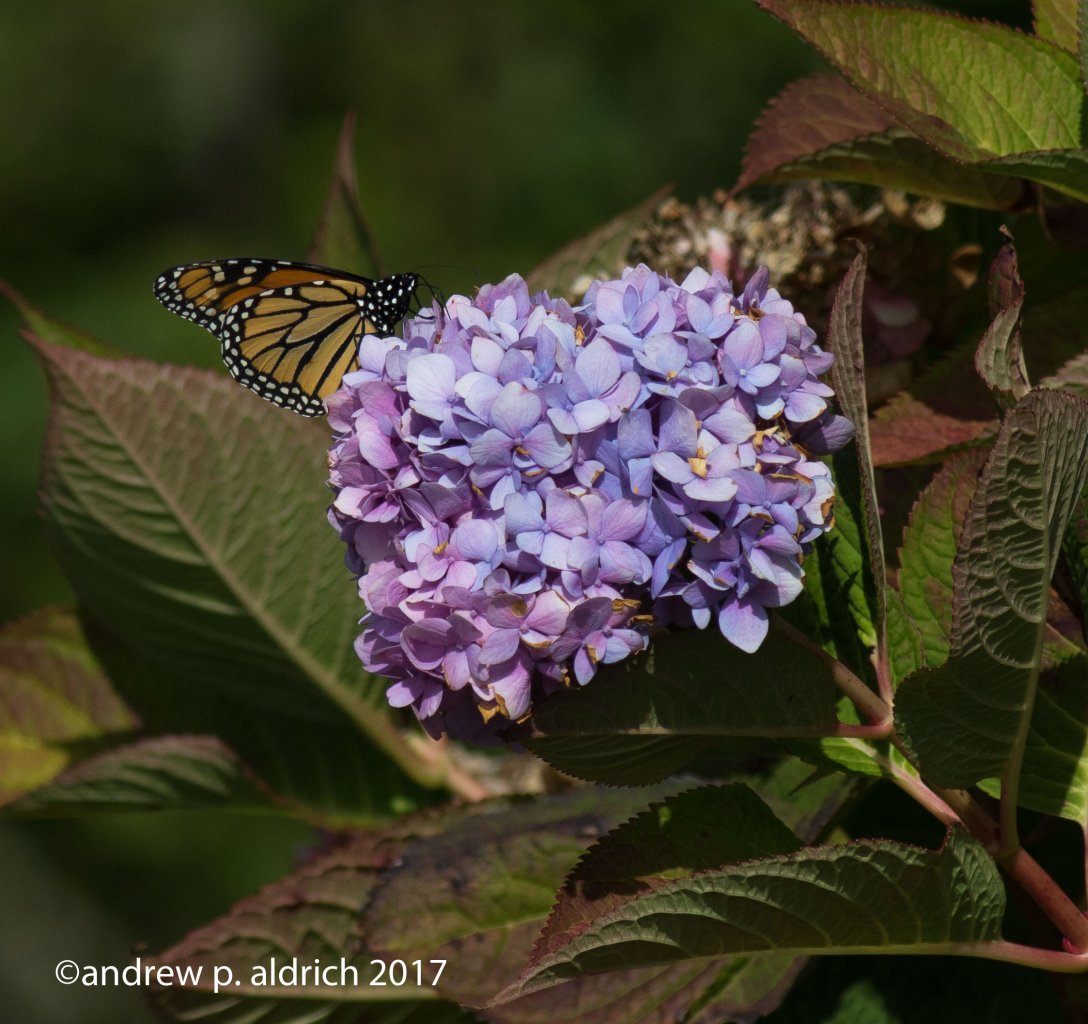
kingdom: Animalia
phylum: Arthropoda
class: Insecta
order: Lepidoptera
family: Nymphalidae
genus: Danaus
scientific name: Danaus plexippus
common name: Monarch
